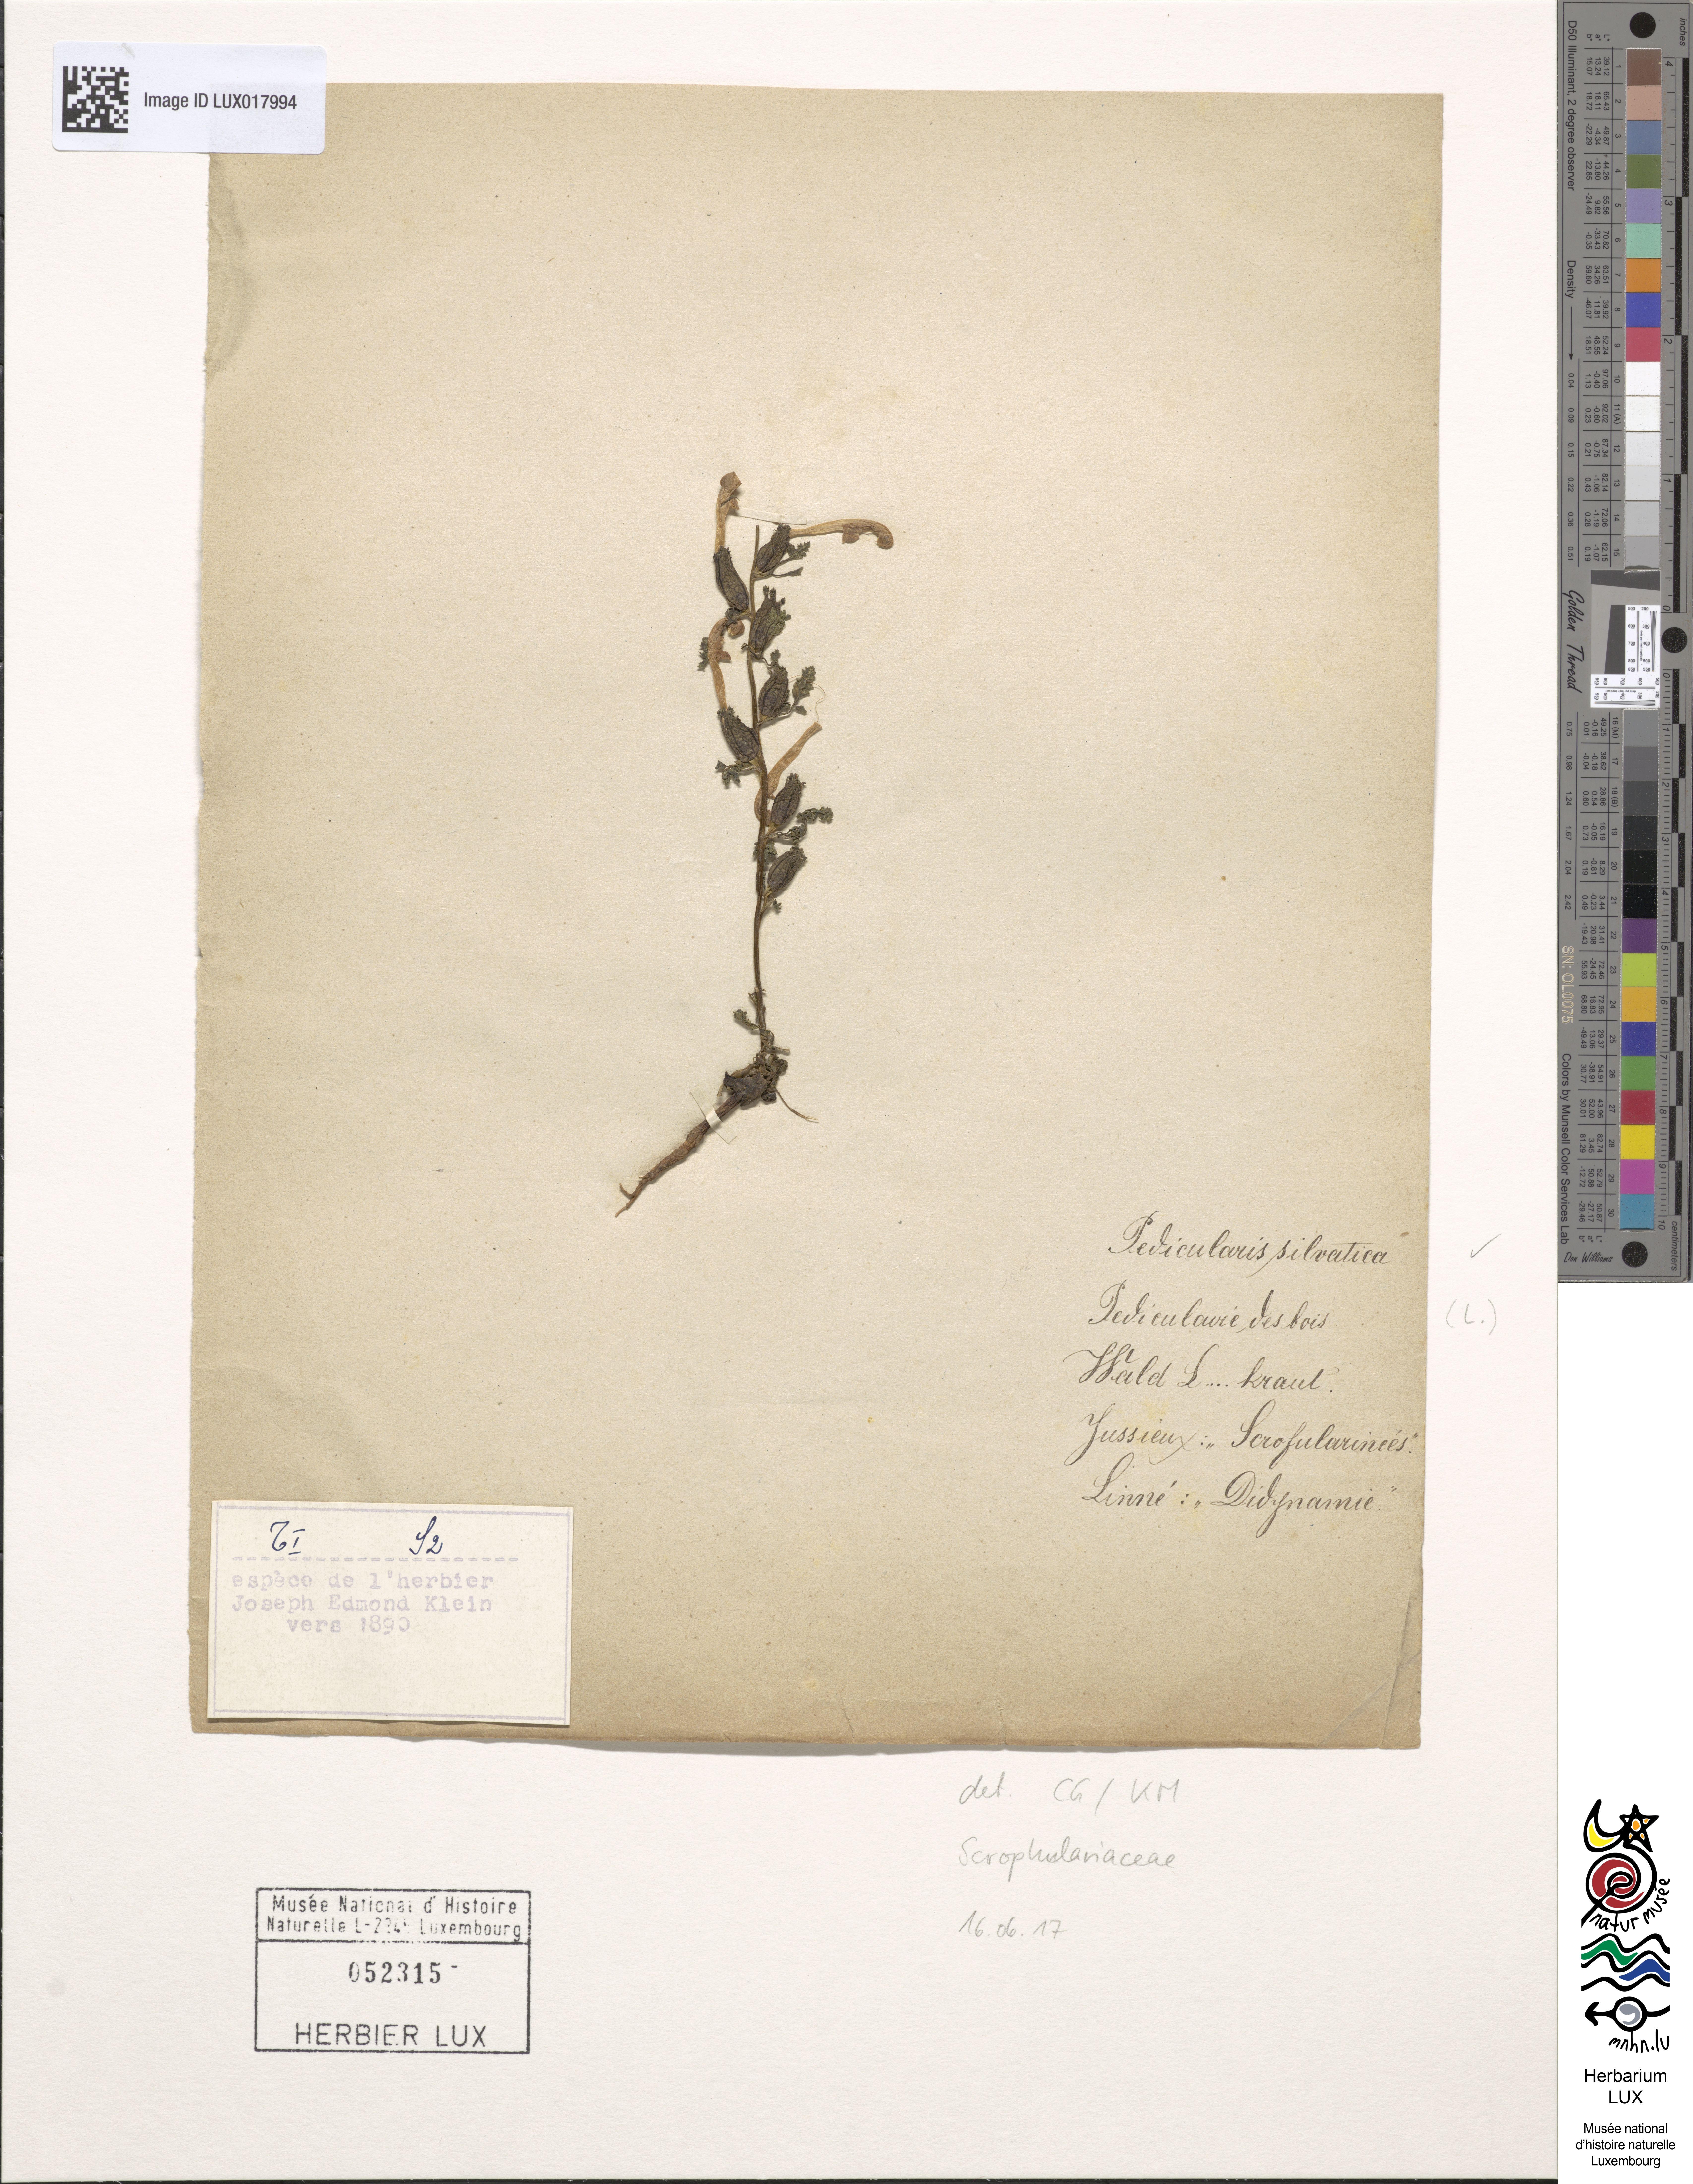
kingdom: Plantae
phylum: Tracheophyta
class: Magnoliopsida
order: Lamiales
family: Orobanchaceae
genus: Pedicularis
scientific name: Pedicularis sylvatica
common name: Lousewort
